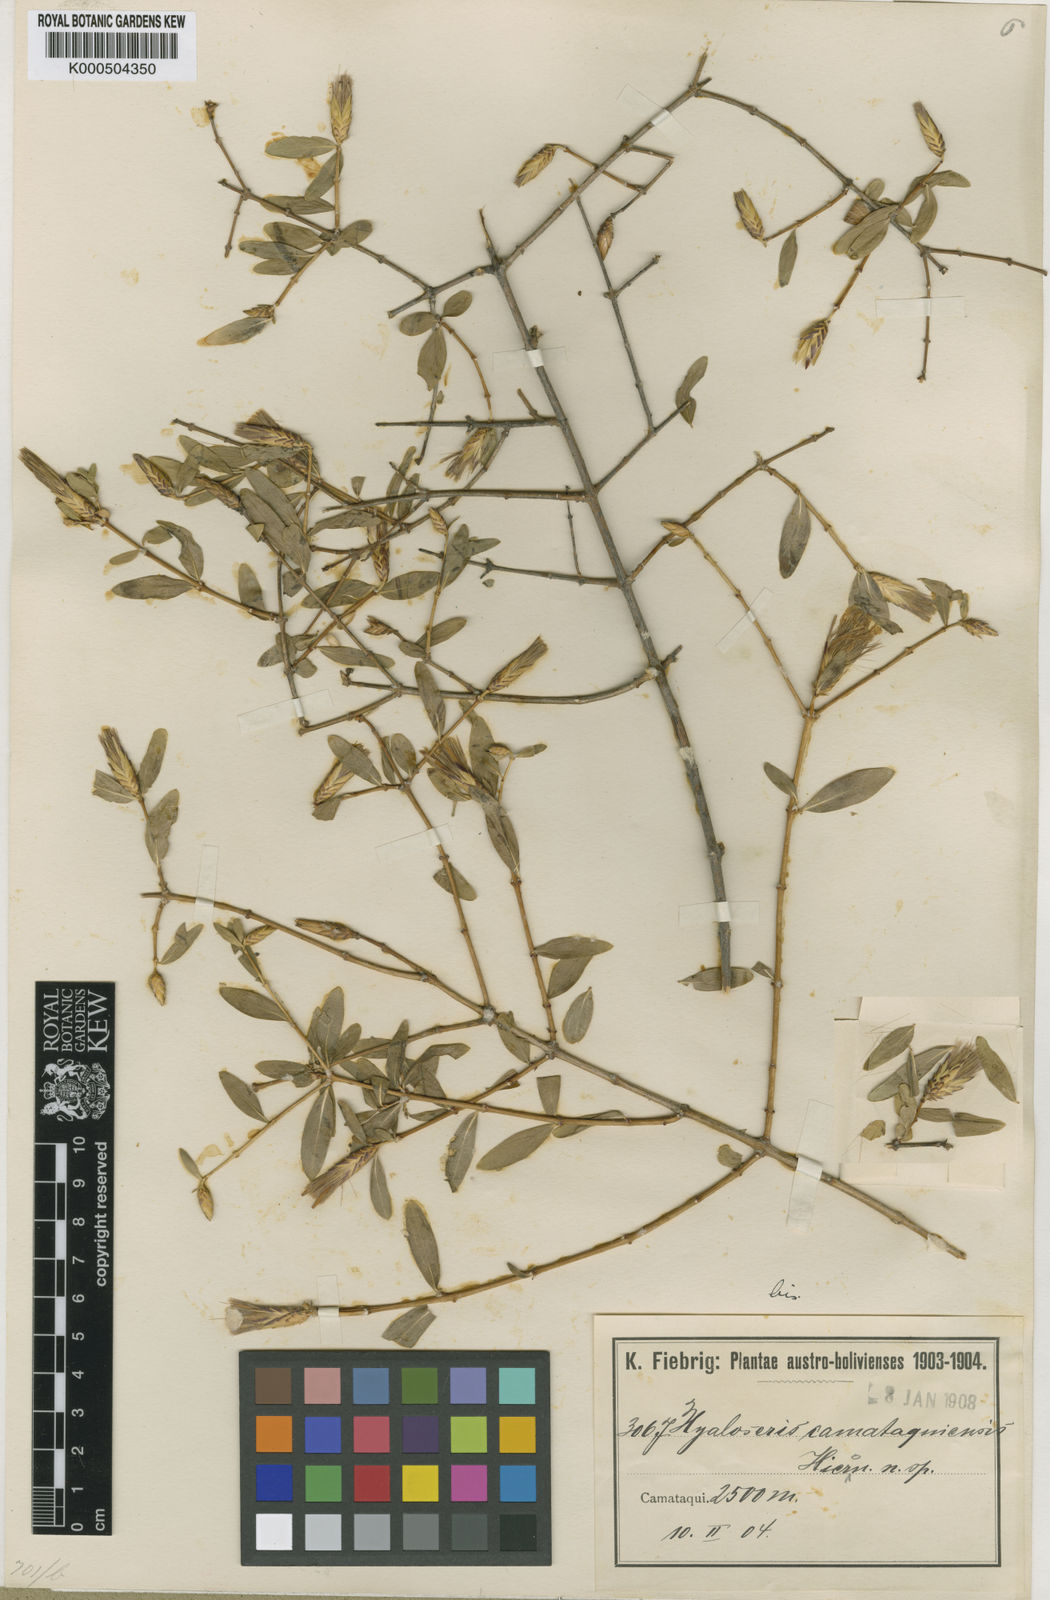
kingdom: Plantae
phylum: Tracheophyta
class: Magnoliopsida
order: Asterales
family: Asteraceae
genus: Hyaloseris
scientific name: Hyaloseris
